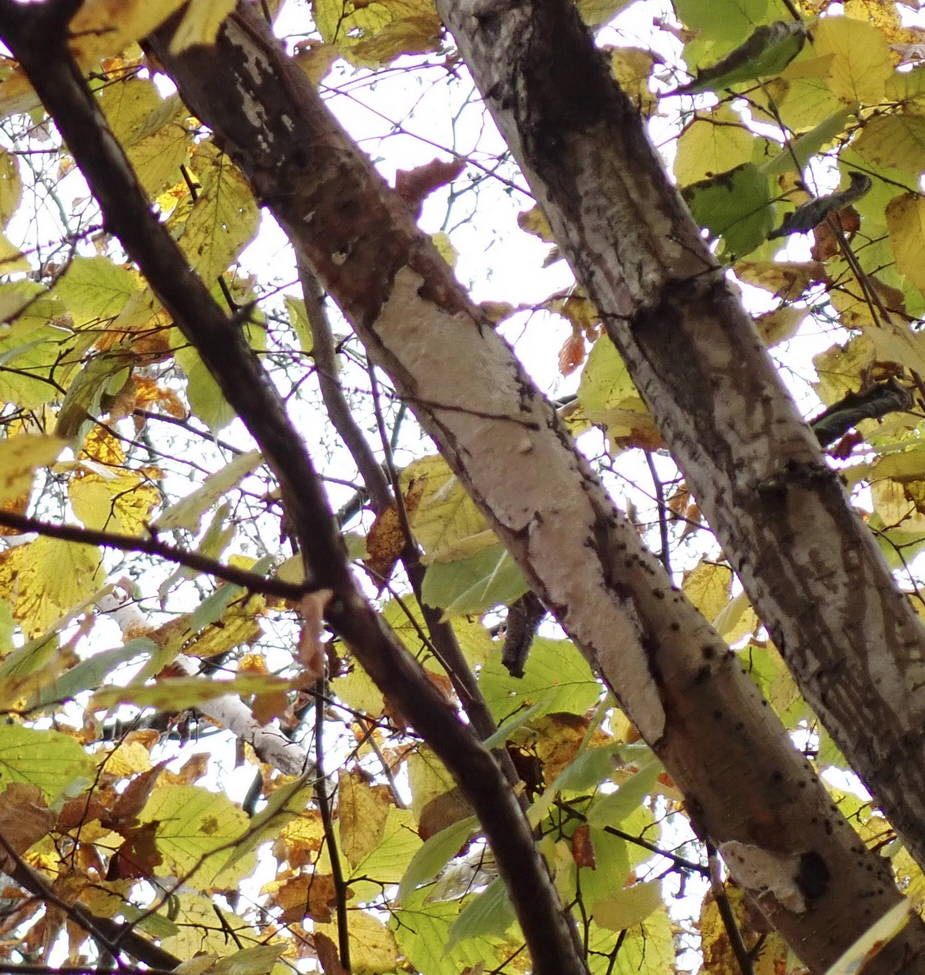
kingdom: Fungi
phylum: Basidiomycota
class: Agaricomycetes
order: Corticiales
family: Vuilleminiaceae
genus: Vuilleminia
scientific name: Vuilleminia coryli
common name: hassel-barksprænger
